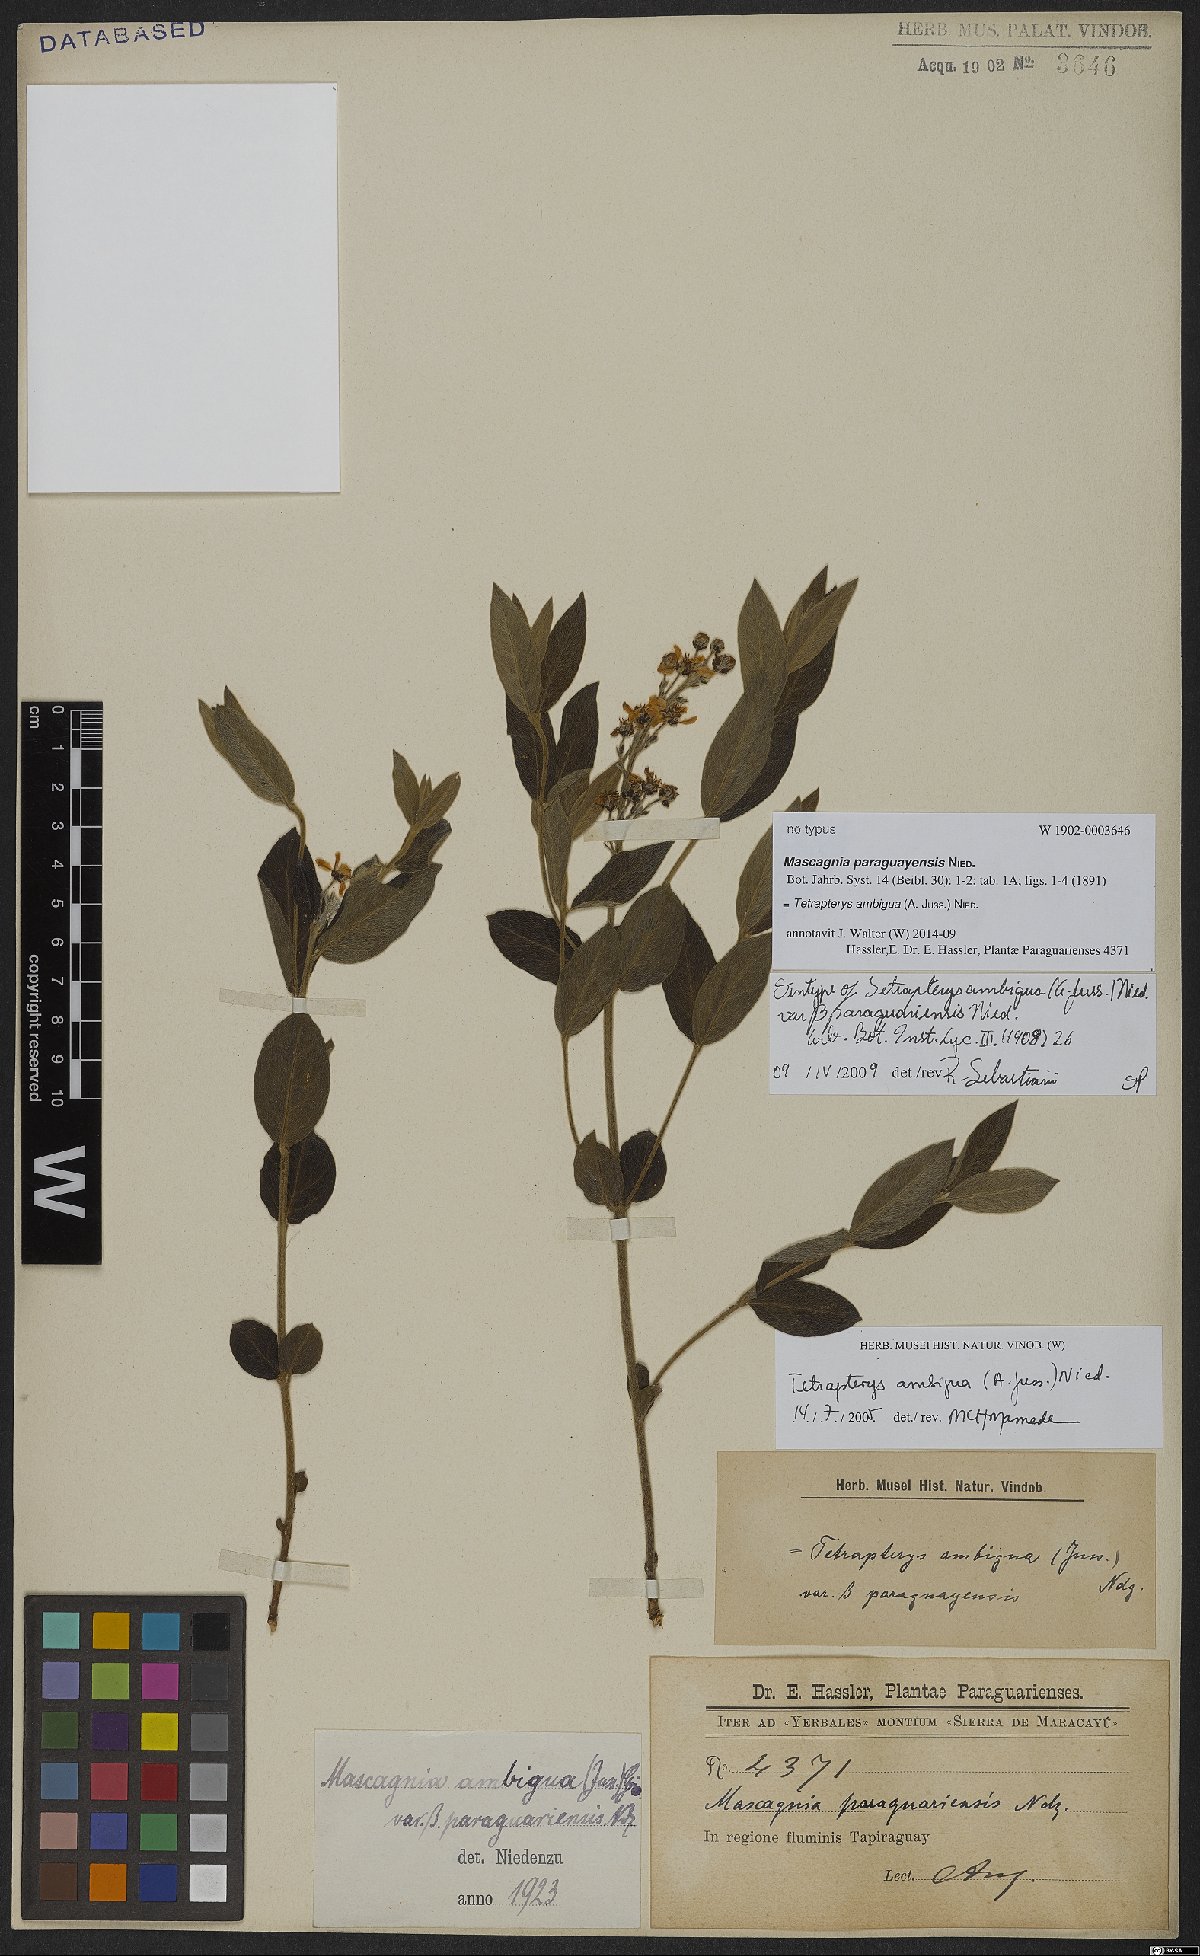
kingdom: Plantae
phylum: Tracheophyta
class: Magnoliopsida
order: Malpighiales
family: Malpighiaceae
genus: Glicophyllum
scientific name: Glicophyllum ambiguum
